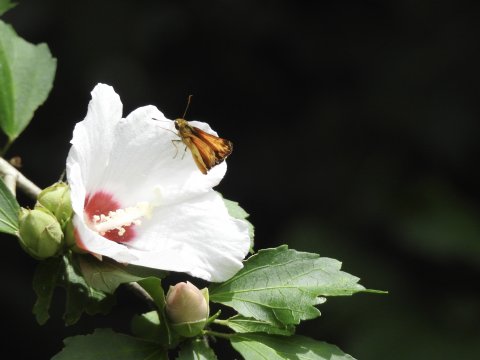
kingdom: Animalia
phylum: Arthropoda
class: Insecta
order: Lepidoptera
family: Hesperiidae
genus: Lon
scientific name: Lon zabulon
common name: Zabulon Skipper
